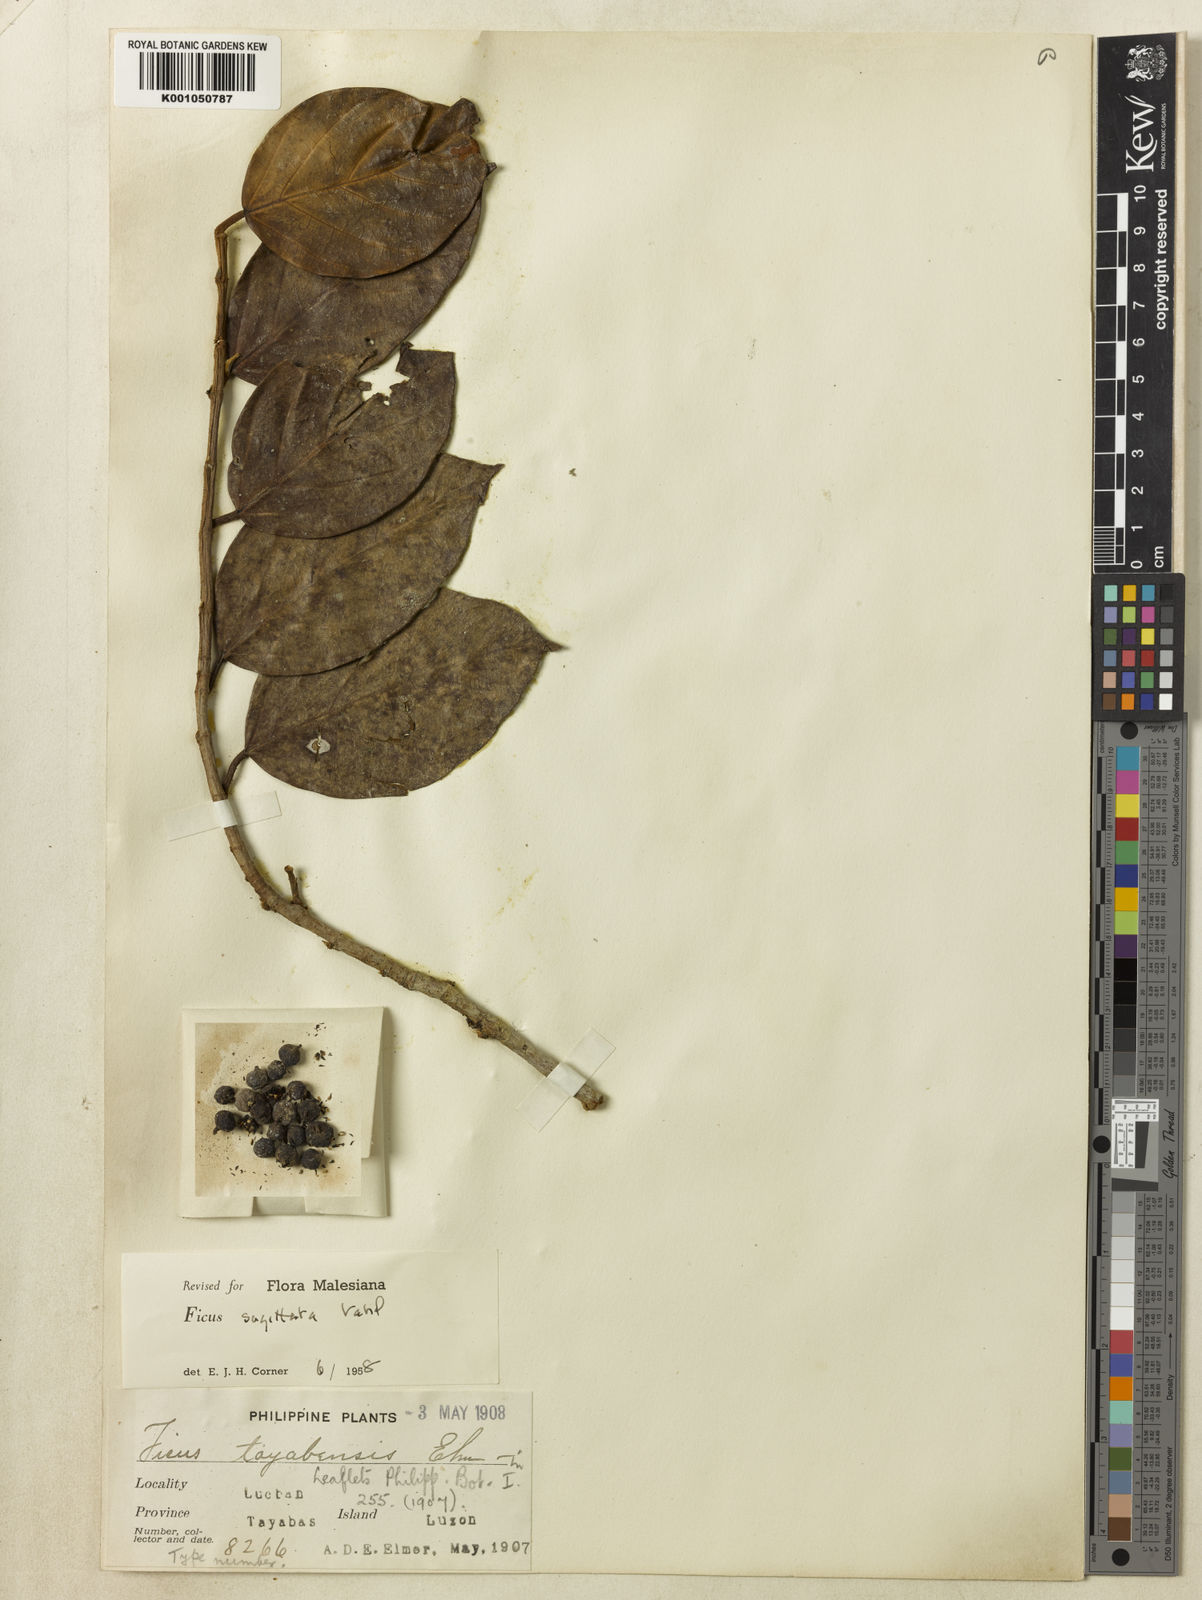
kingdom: Plantae
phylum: Tracheophyta
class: Magnoliopsida
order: Rosales
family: Moraceae
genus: Ficus
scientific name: Ficus sagittata
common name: Trailing fig
